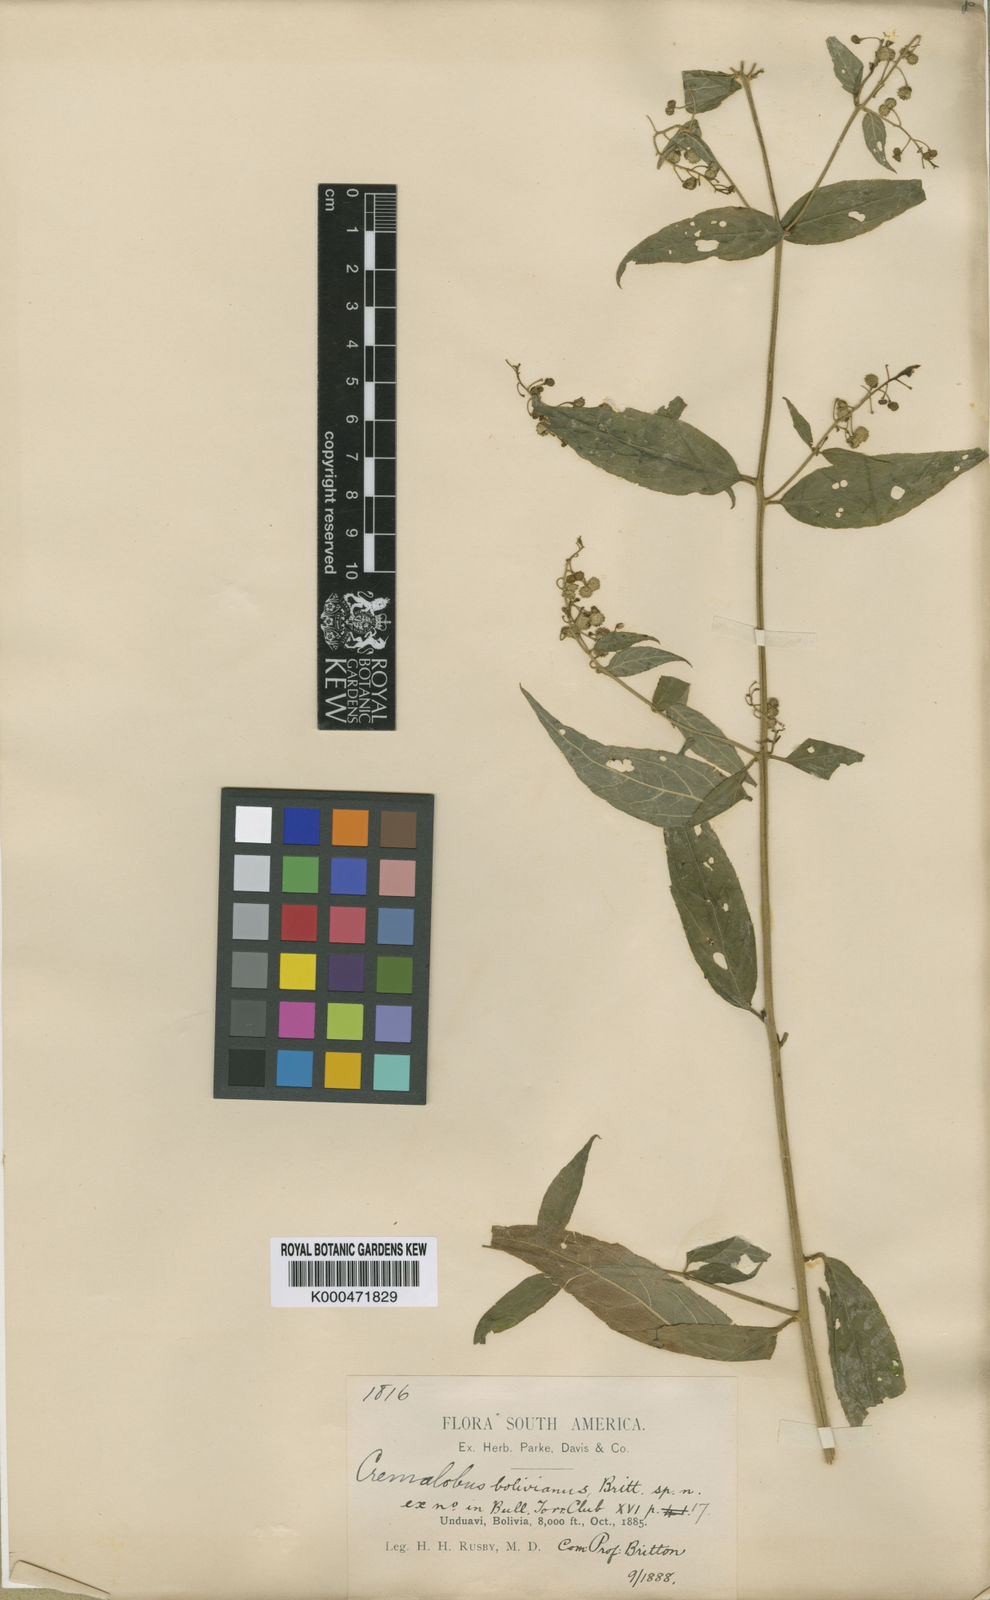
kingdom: Plantae
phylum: Tracheophyta
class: Magnoliopsida
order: Brassicales
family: Brassicaceae
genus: Cremolobus
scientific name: Cremolobus bolivianus
